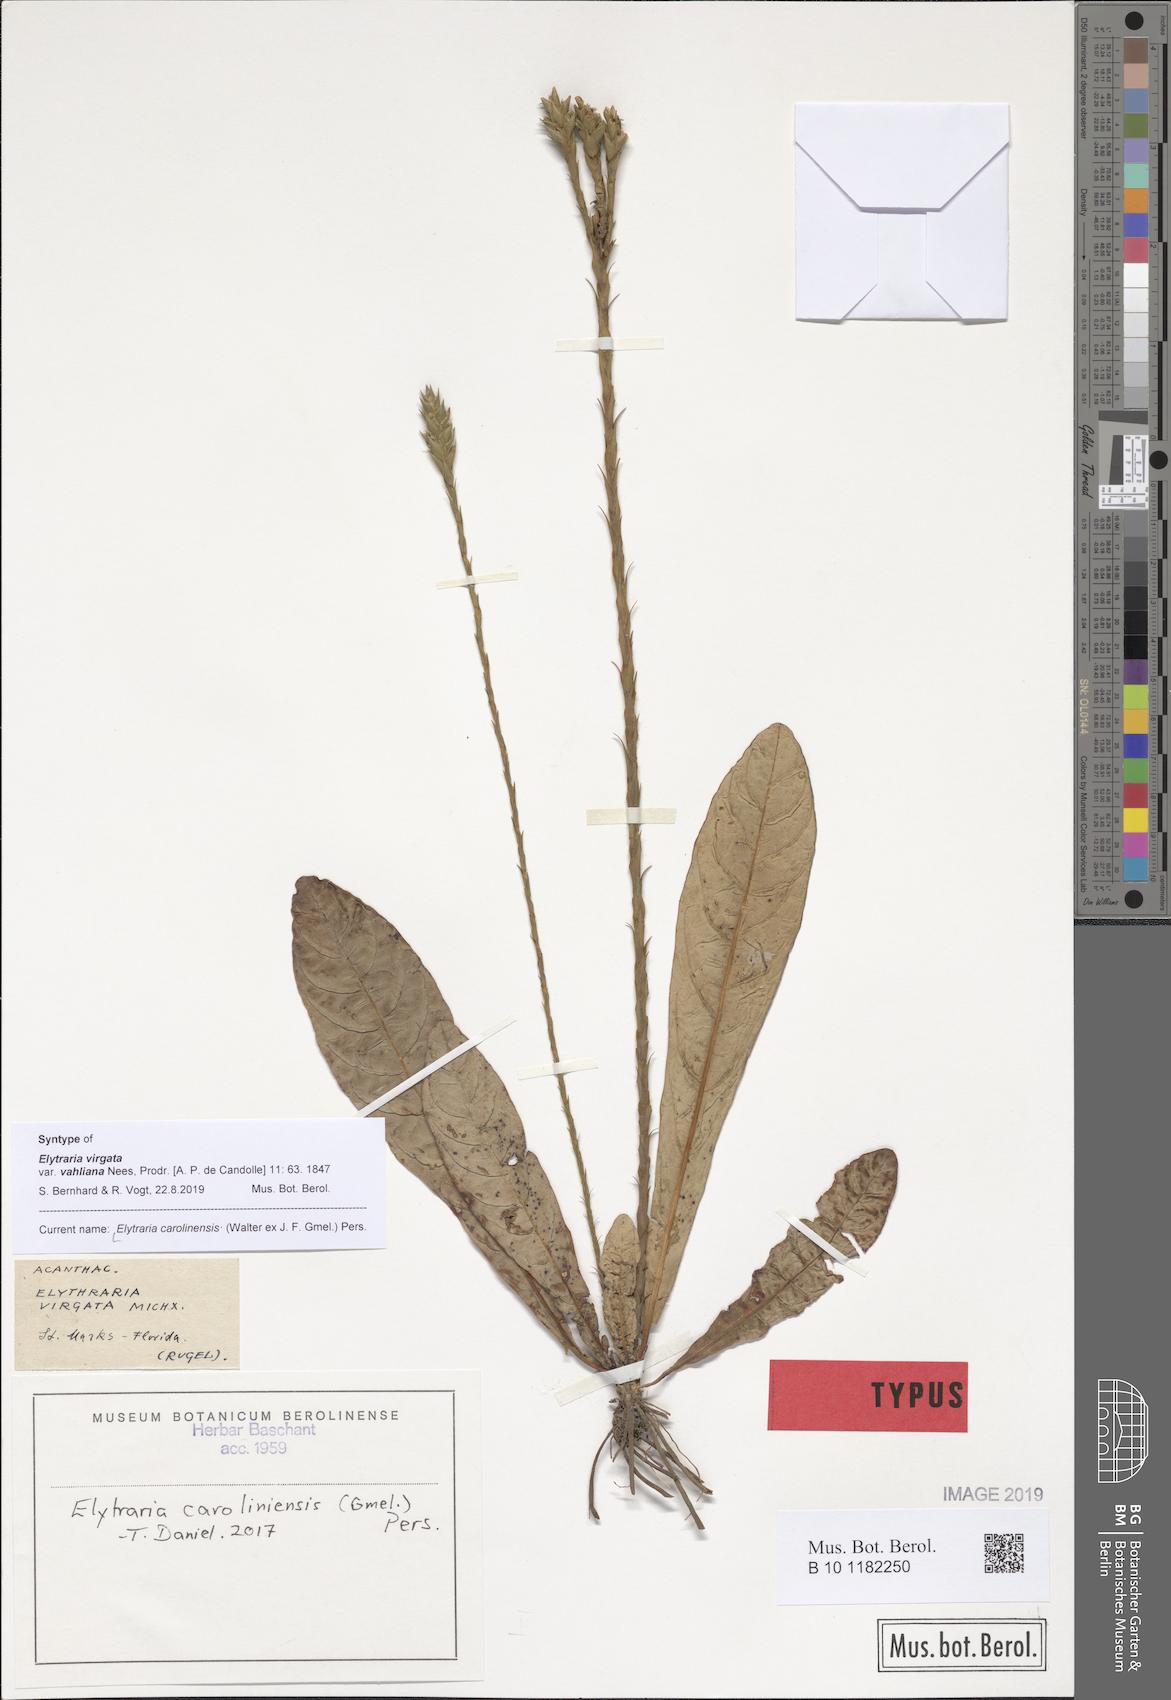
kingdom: Plantae
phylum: Tracheophyta
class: Magnoliopsida
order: Lamiales
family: Acanthaceae
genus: Elytraria
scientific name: Elytraria caroliniensis
